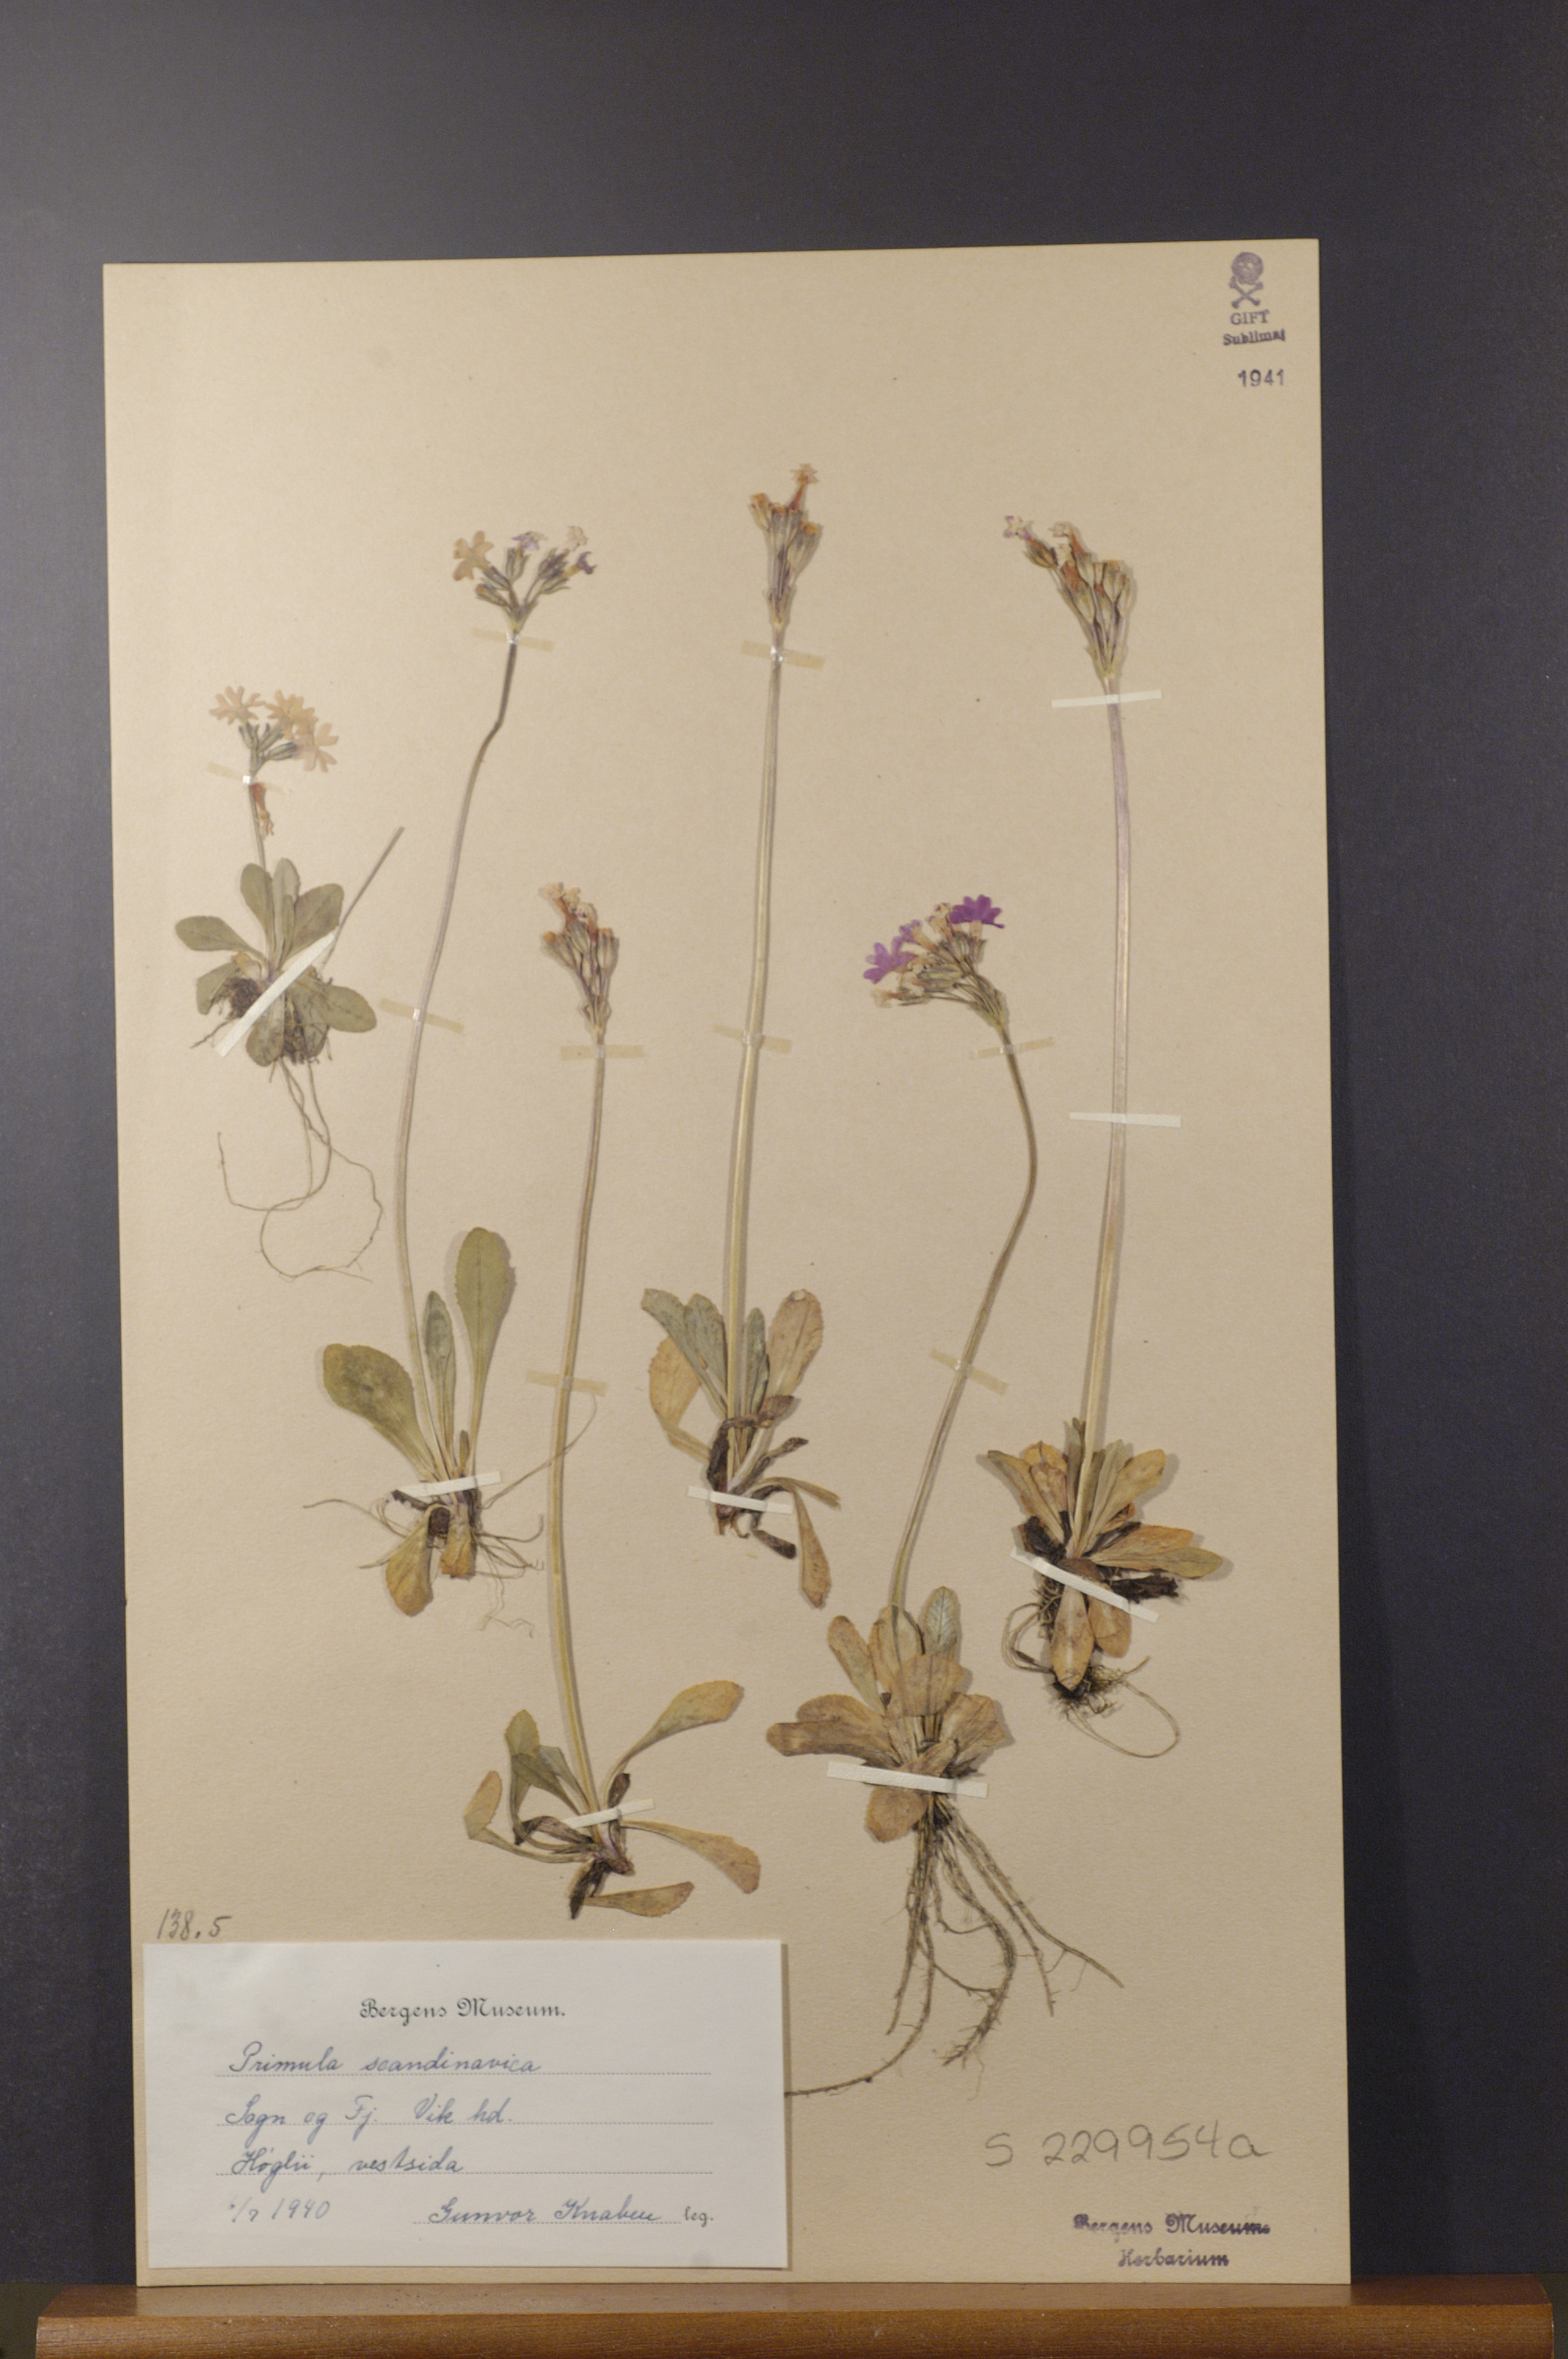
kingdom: Plantae
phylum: Tracheophyta
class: Magnoliopsida
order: Ericales
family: Primulaceae
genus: Primula
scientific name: Primula scandinavica
